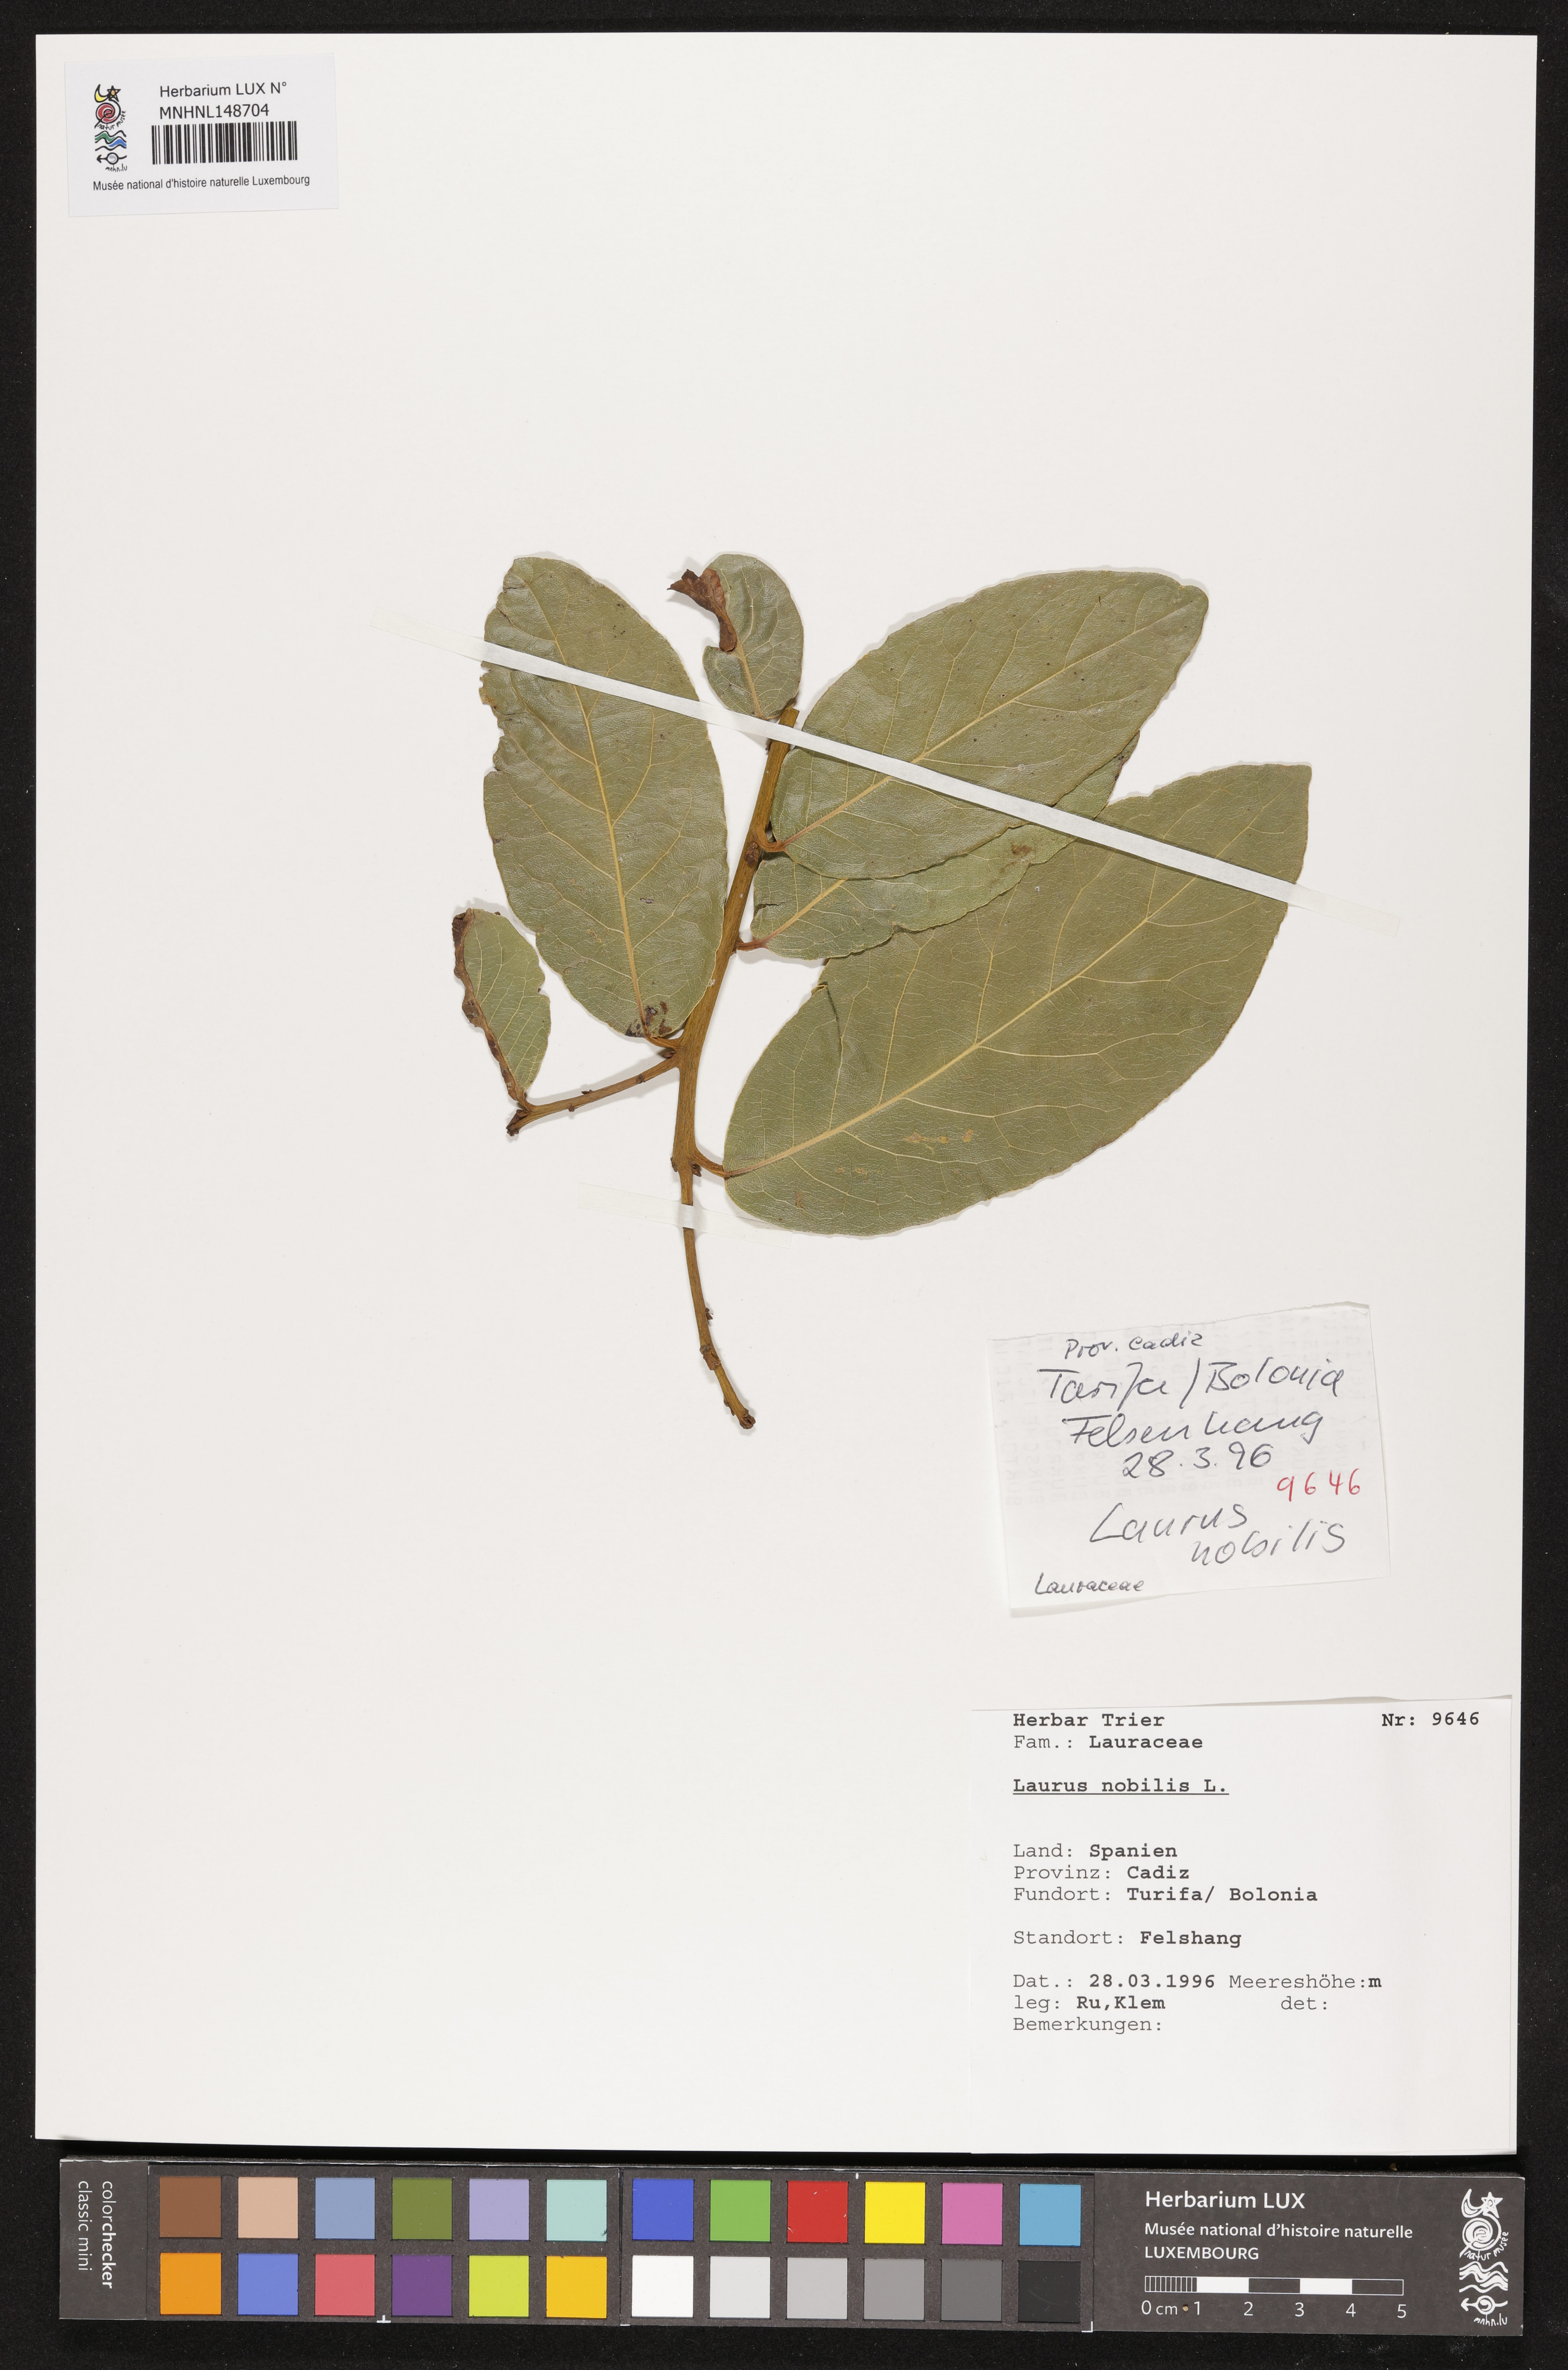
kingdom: Plantae
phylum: Tracheophyta
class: Magnoliopsida
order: Laurales
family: Lauraceae
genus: Laurus
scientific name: Laurus nobilis
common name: Bay
